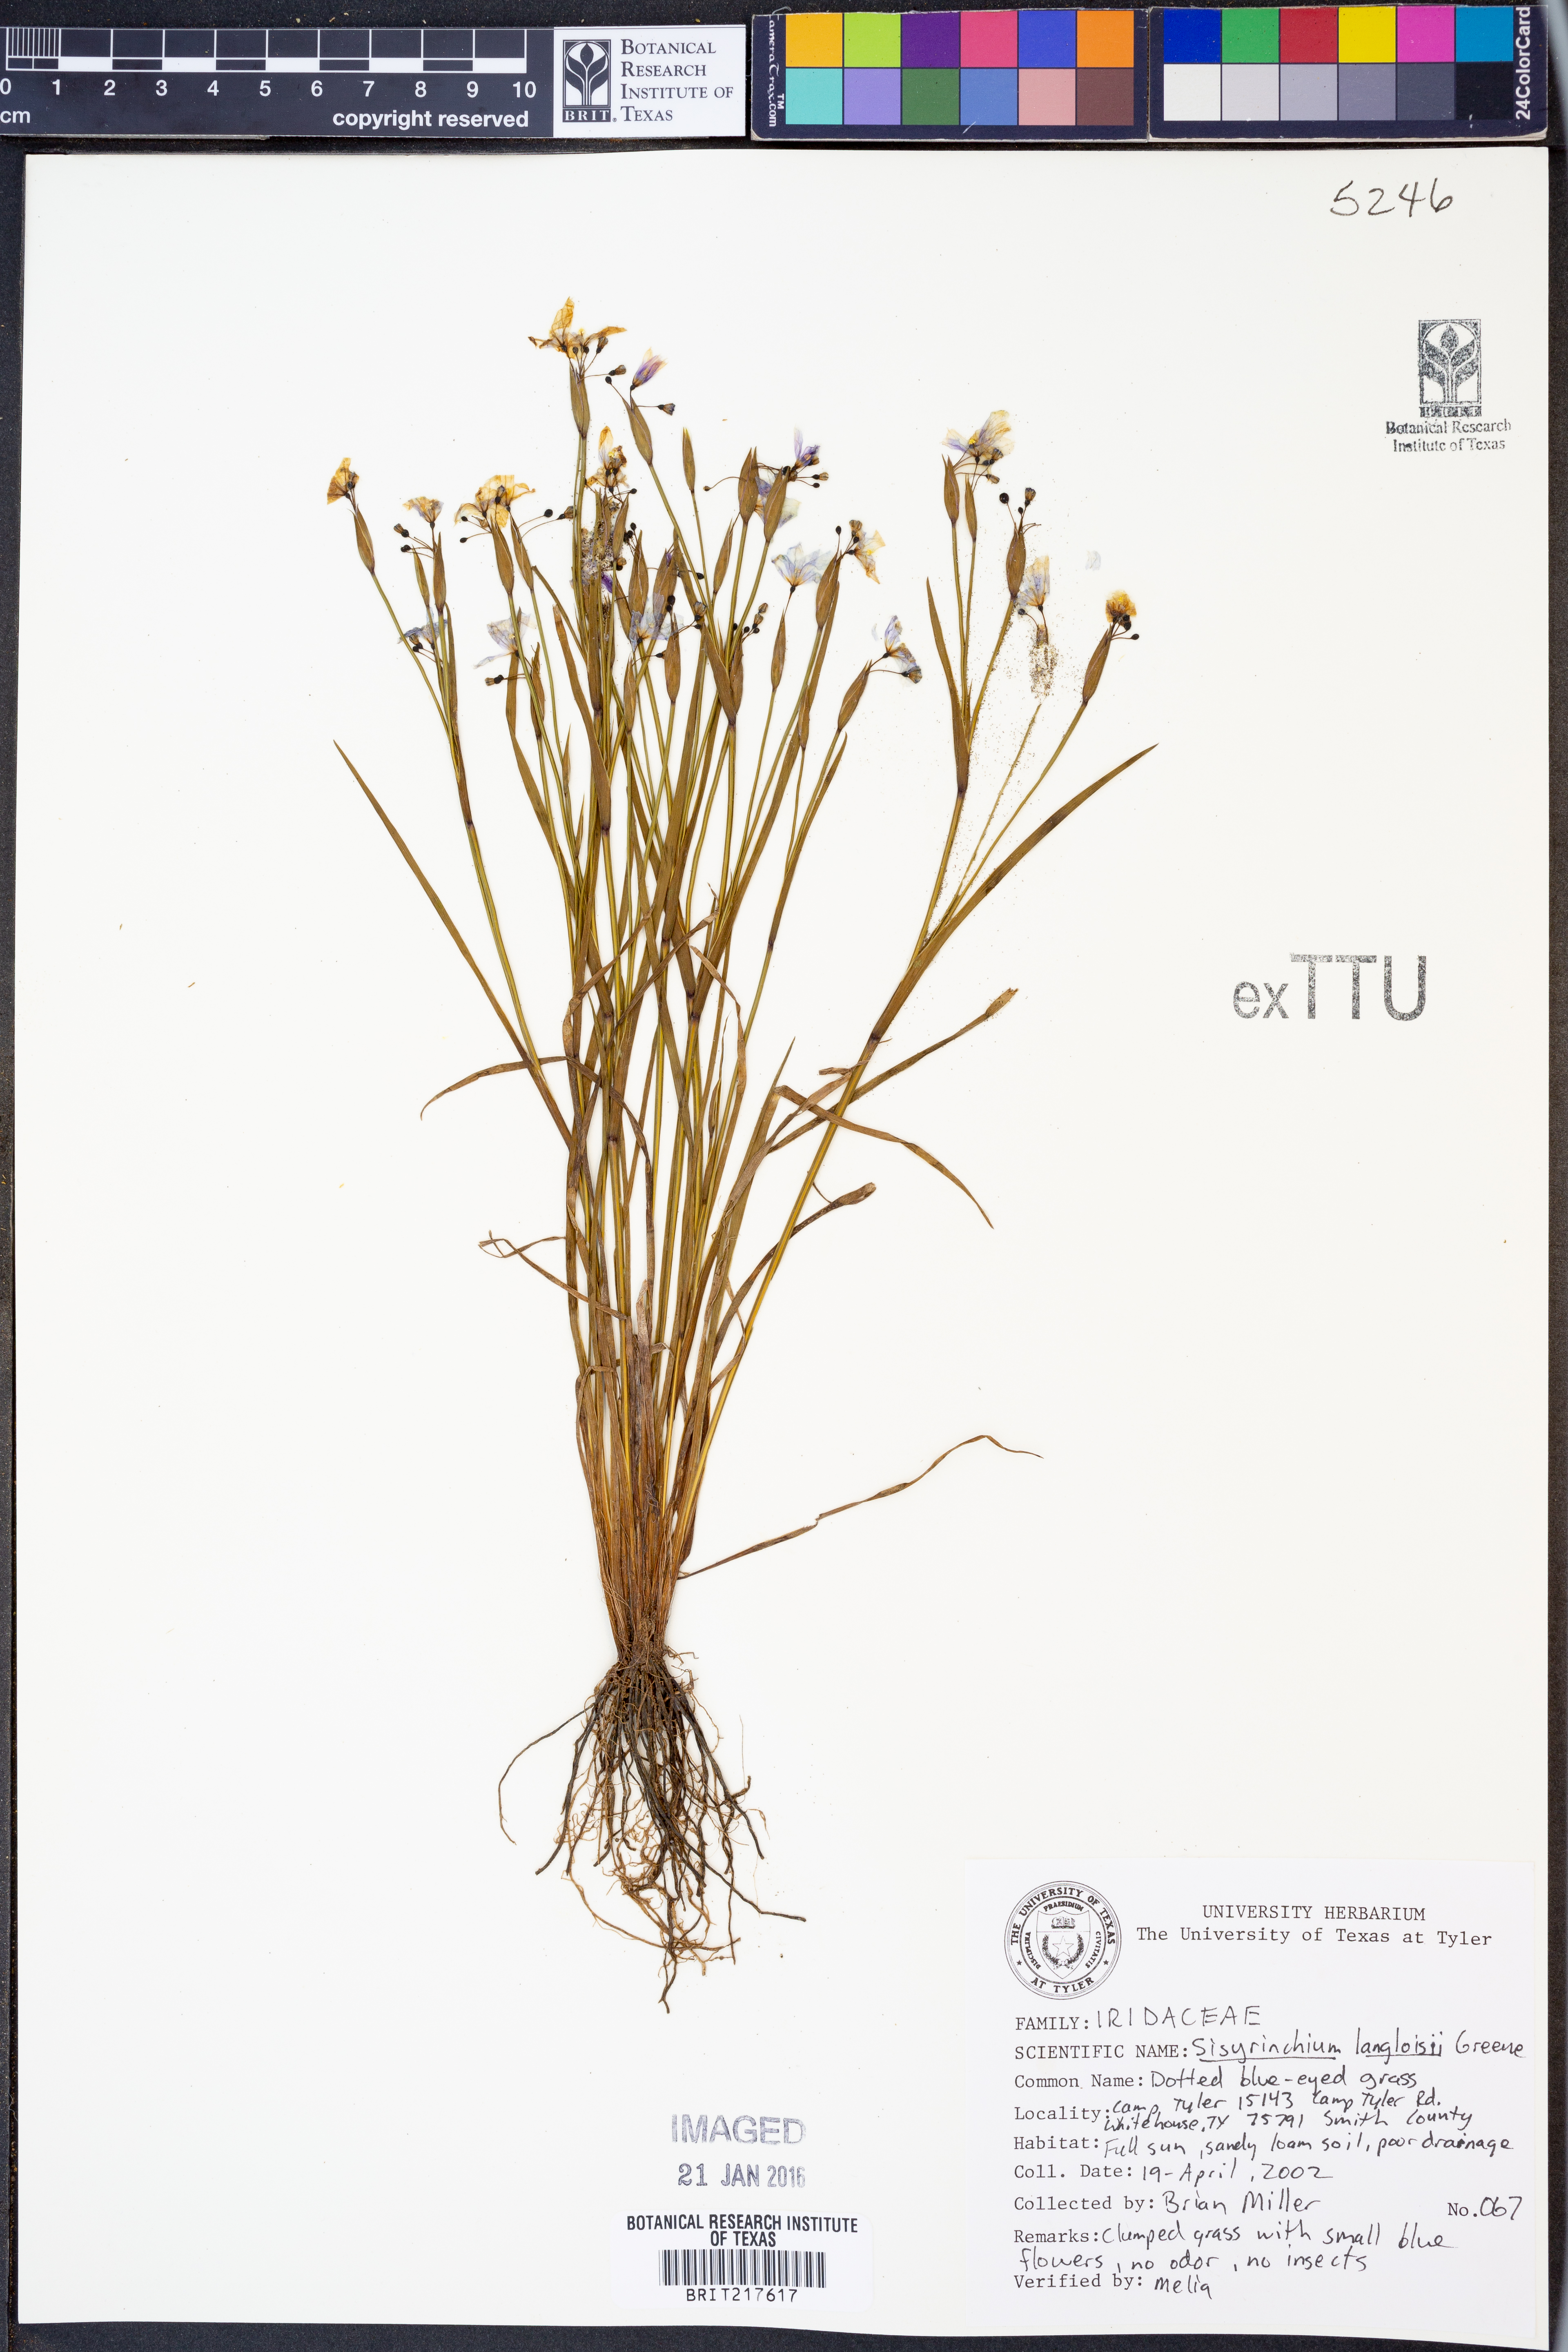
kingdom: Plantae
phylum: Tracheophyta
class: Liliopsida
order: Asparagales
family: Iridaceae
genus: Sisyrinchium
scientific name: Sisyrinchium langloisii
